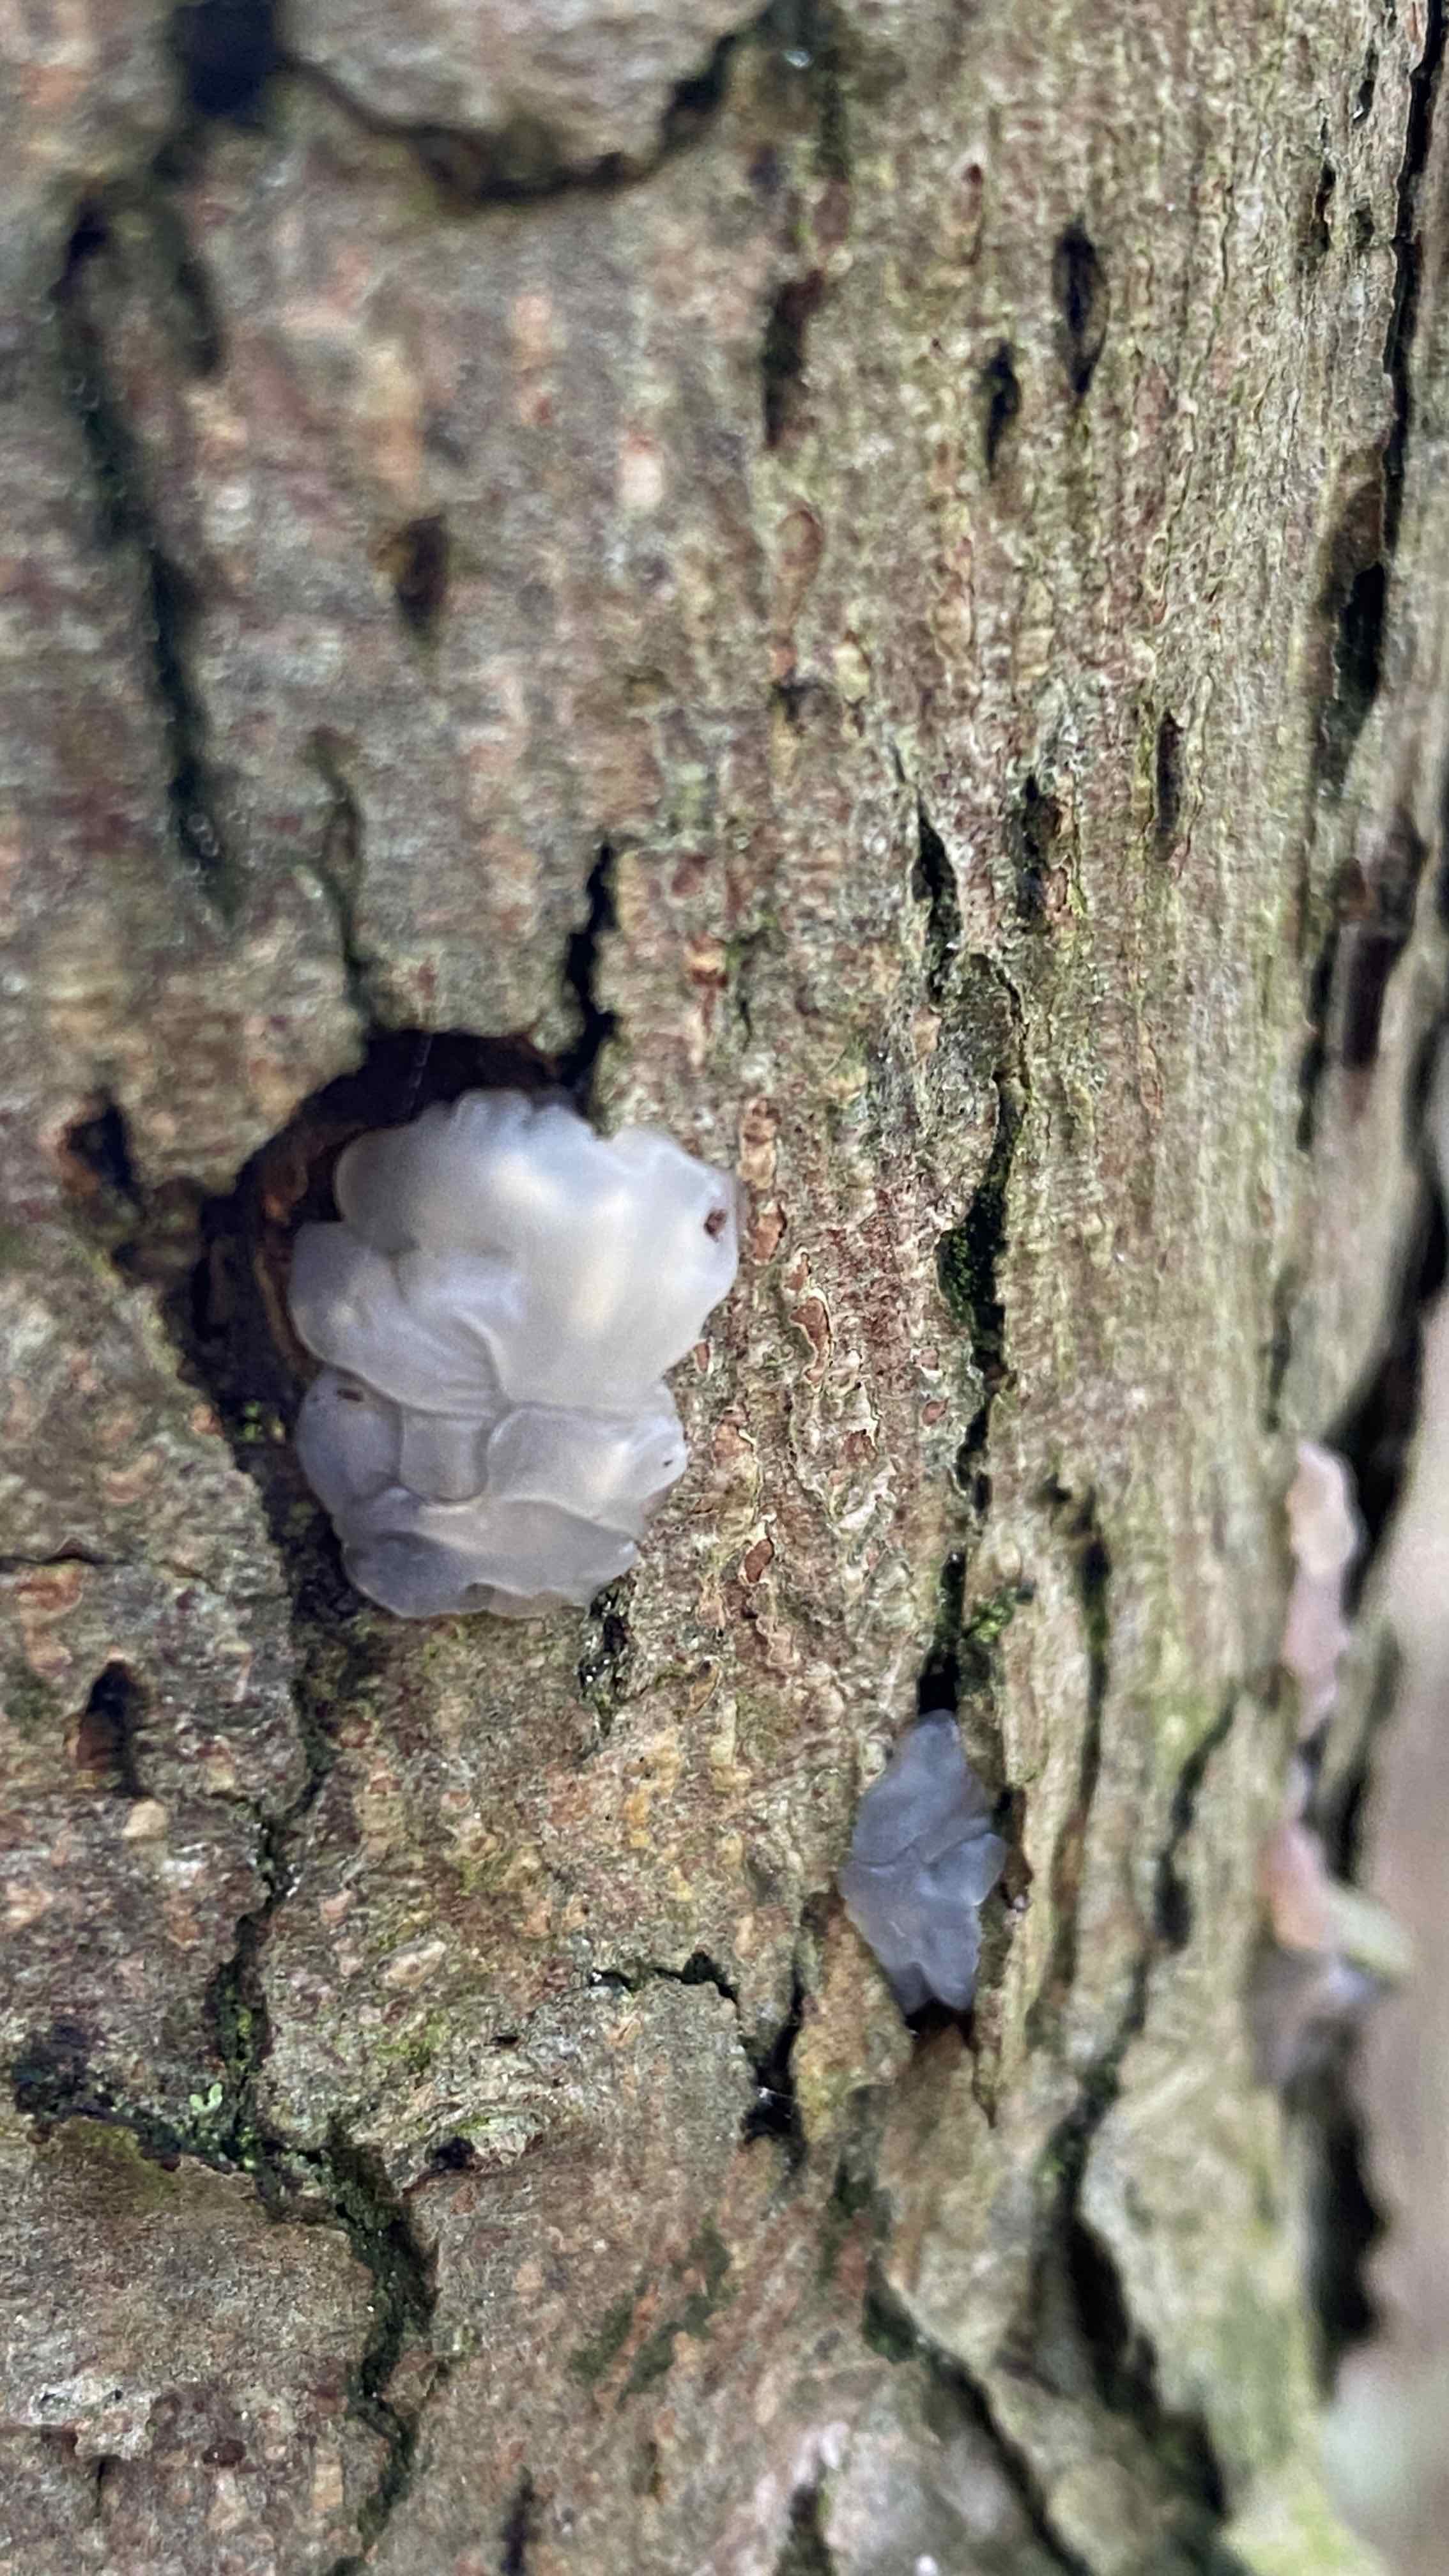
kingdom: Fungi
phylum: Basidiomycota
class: Agaricomycetes
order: Auriculariales
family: Hyaloriaceae
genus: Myxarium
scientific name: Myxarium nucleatum
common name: klar bævretop
